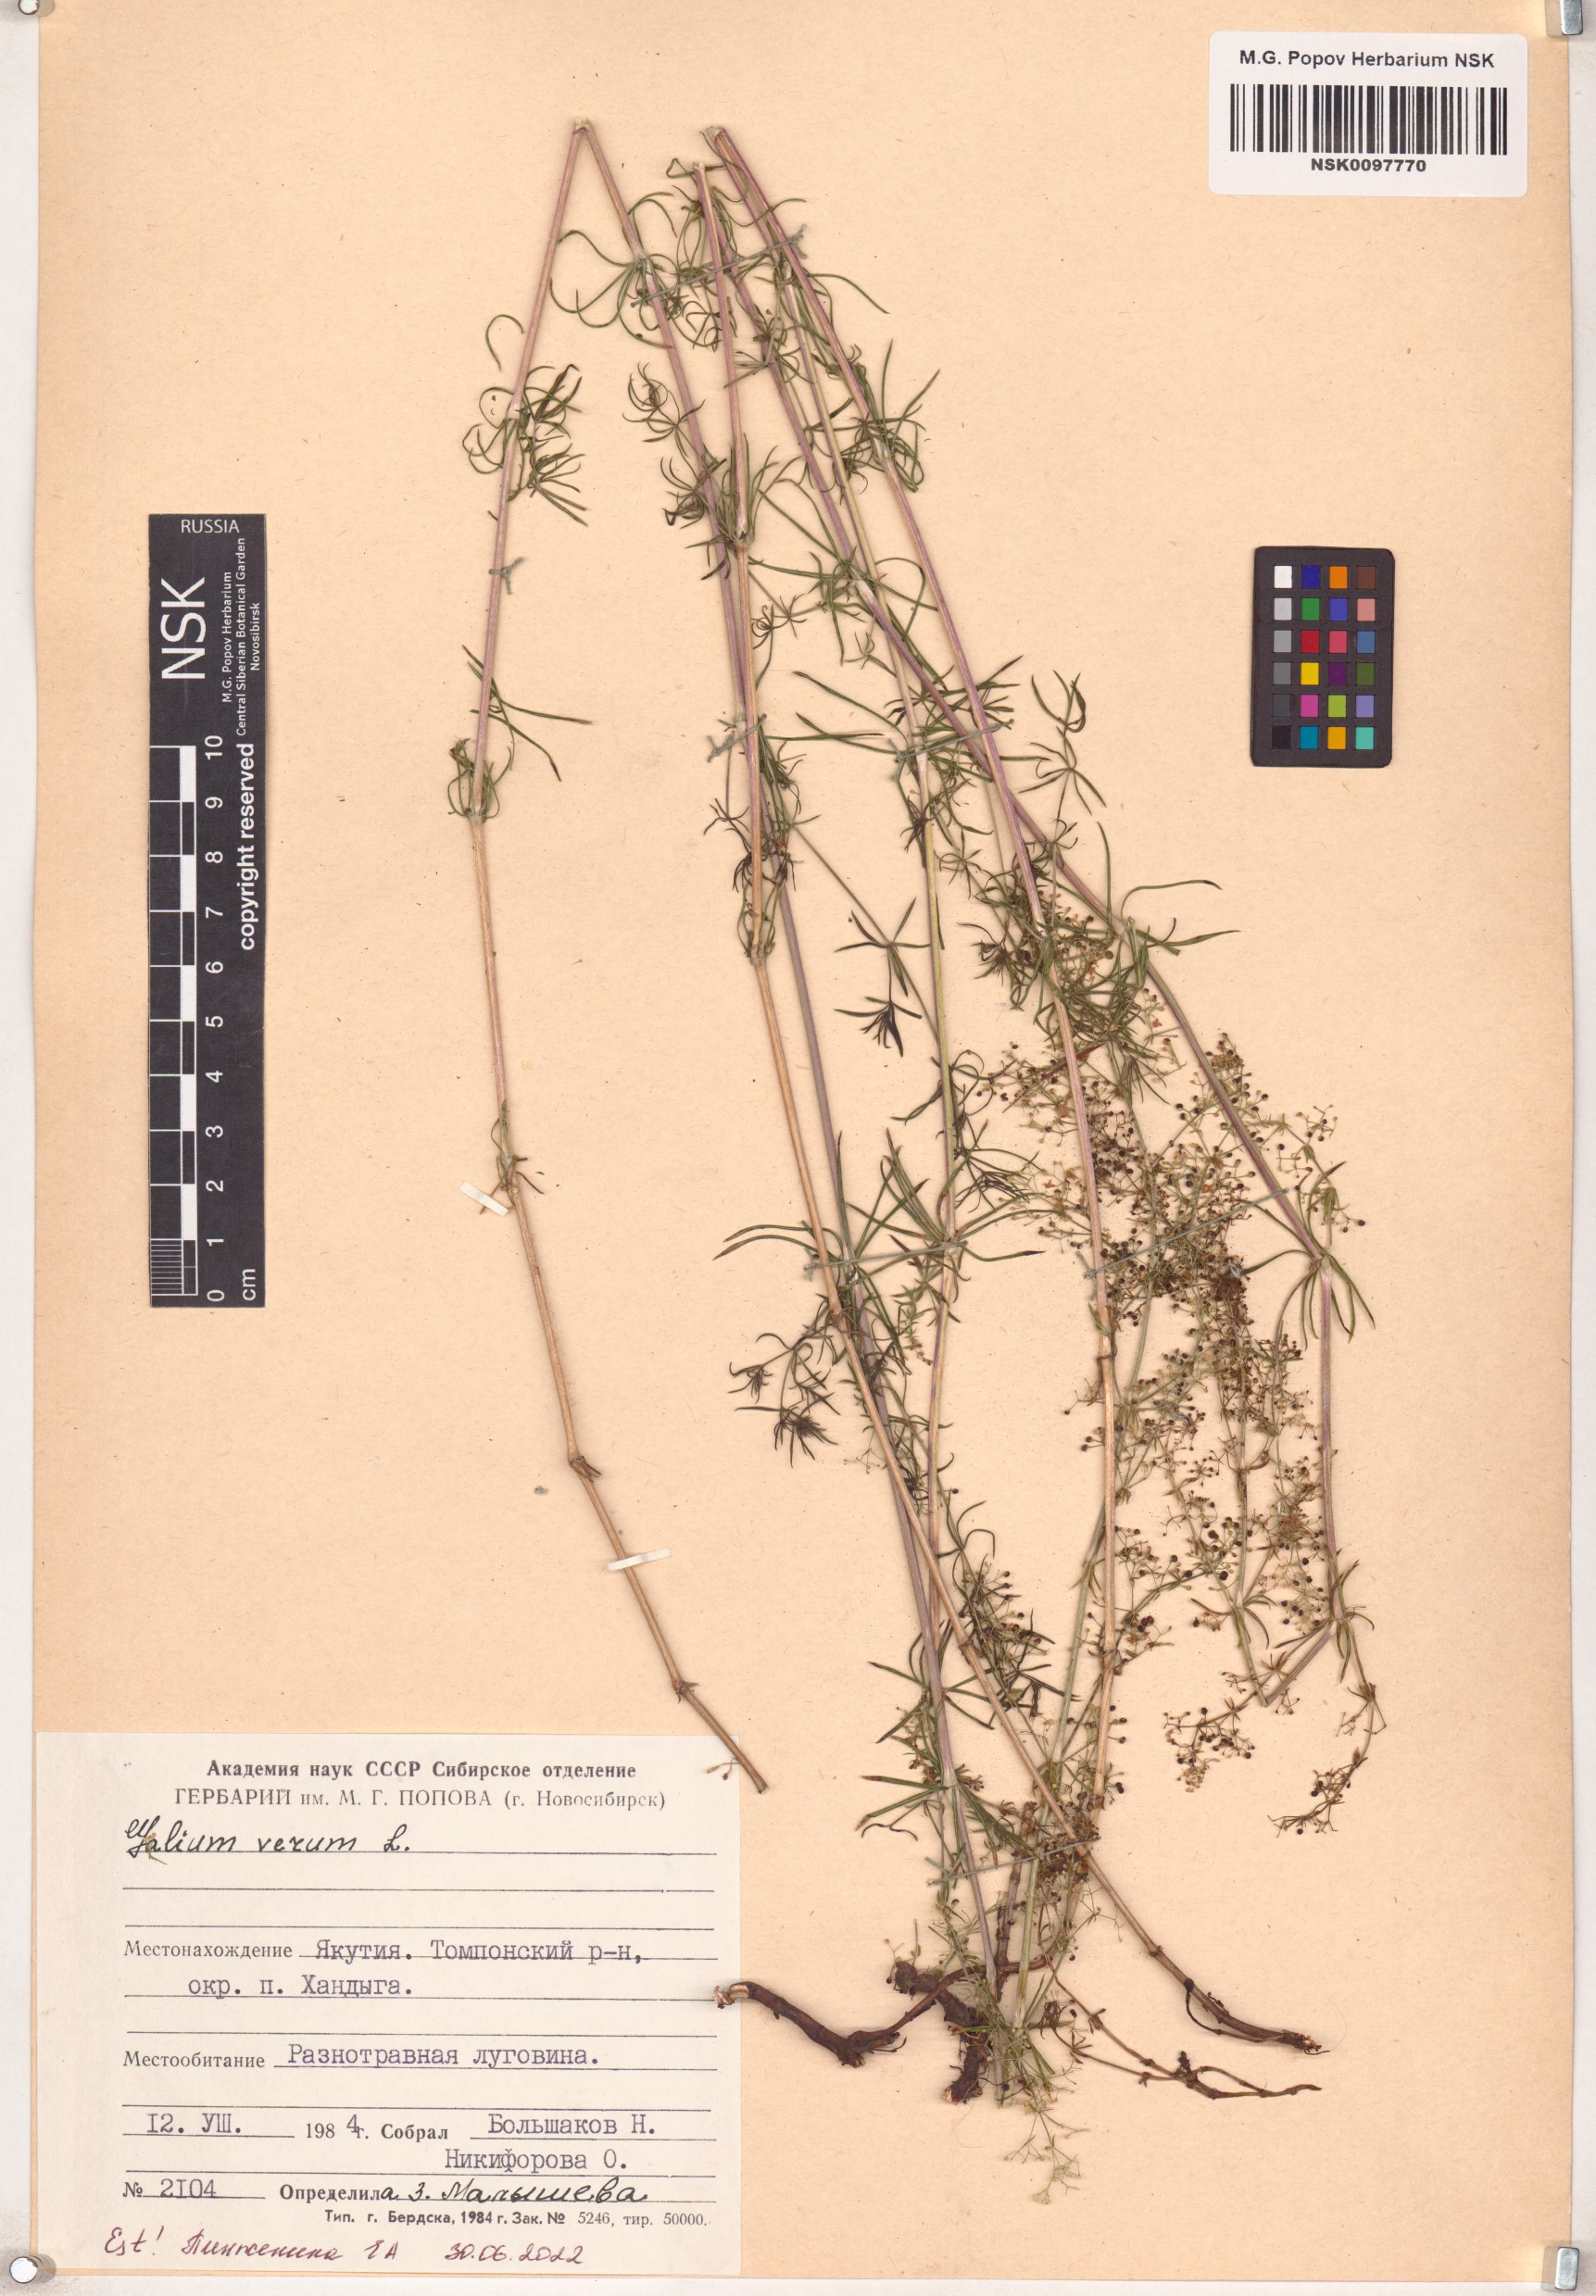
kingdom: Plantae
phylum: Tracheophyta
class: Magnoliopsida
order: Gentianales
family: Rubiaceae
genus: Galium
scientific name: Galium verum
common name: Lady's bedstraw
